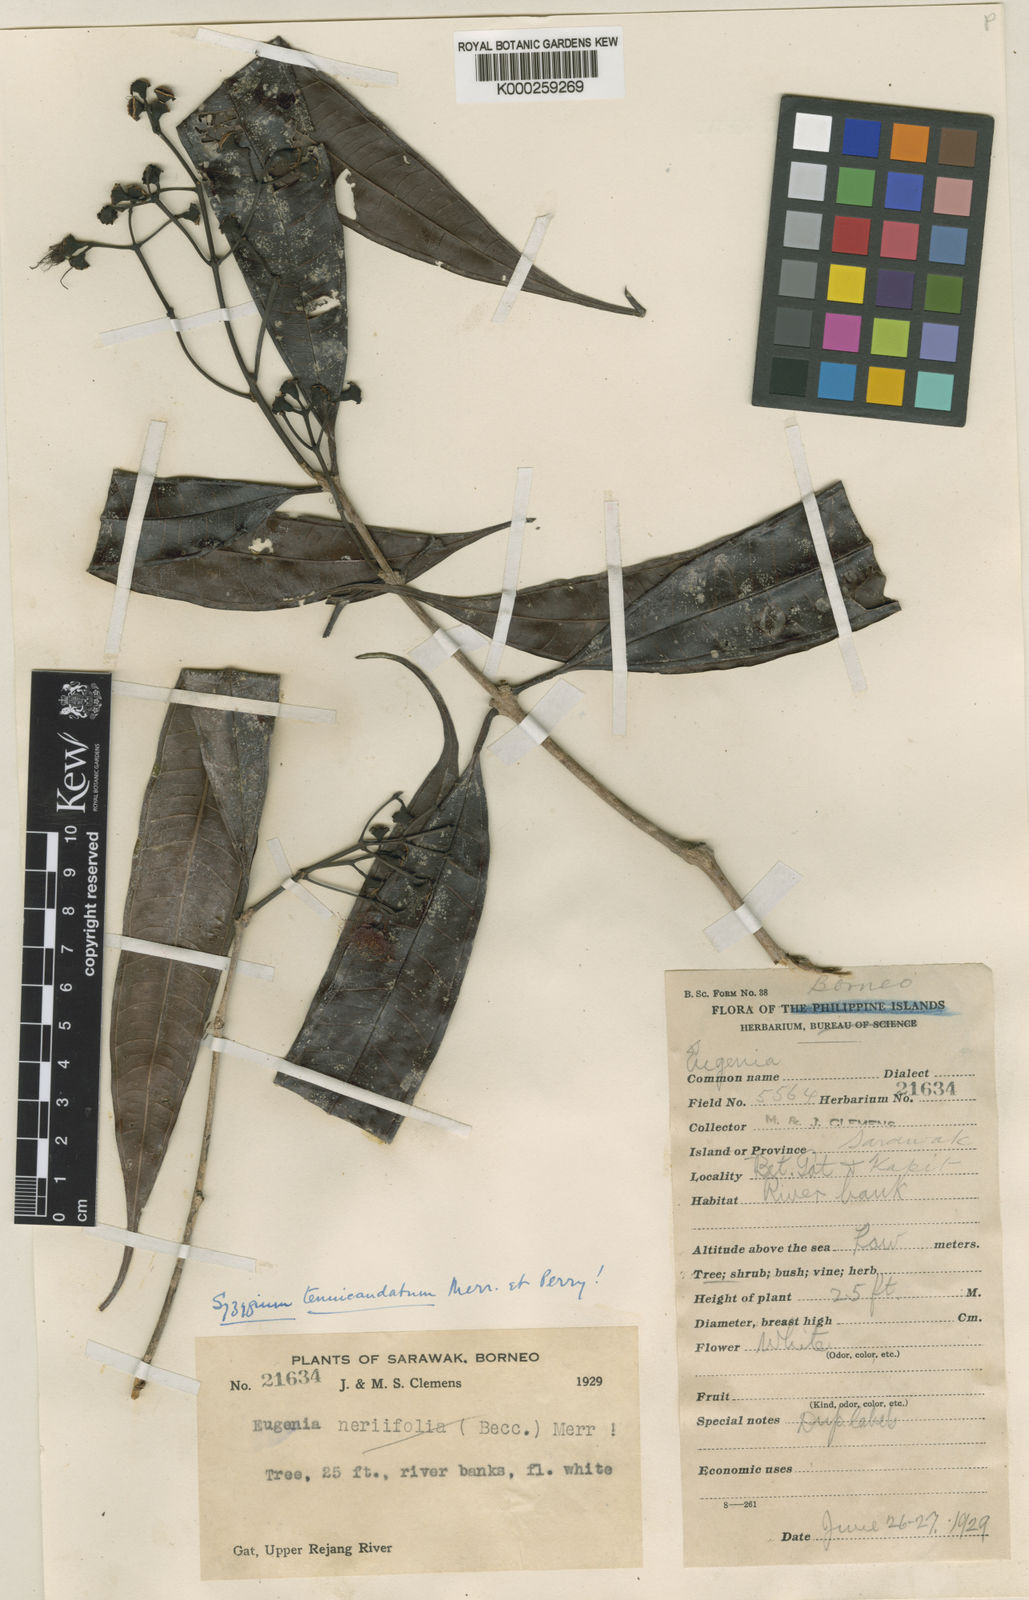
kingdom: Plantae
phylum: Tracheophyta
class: Magnoliopsida
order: Myrtales
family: Myrtaceae
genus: Syzygium
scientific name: Syzygium tenuicaudatum
